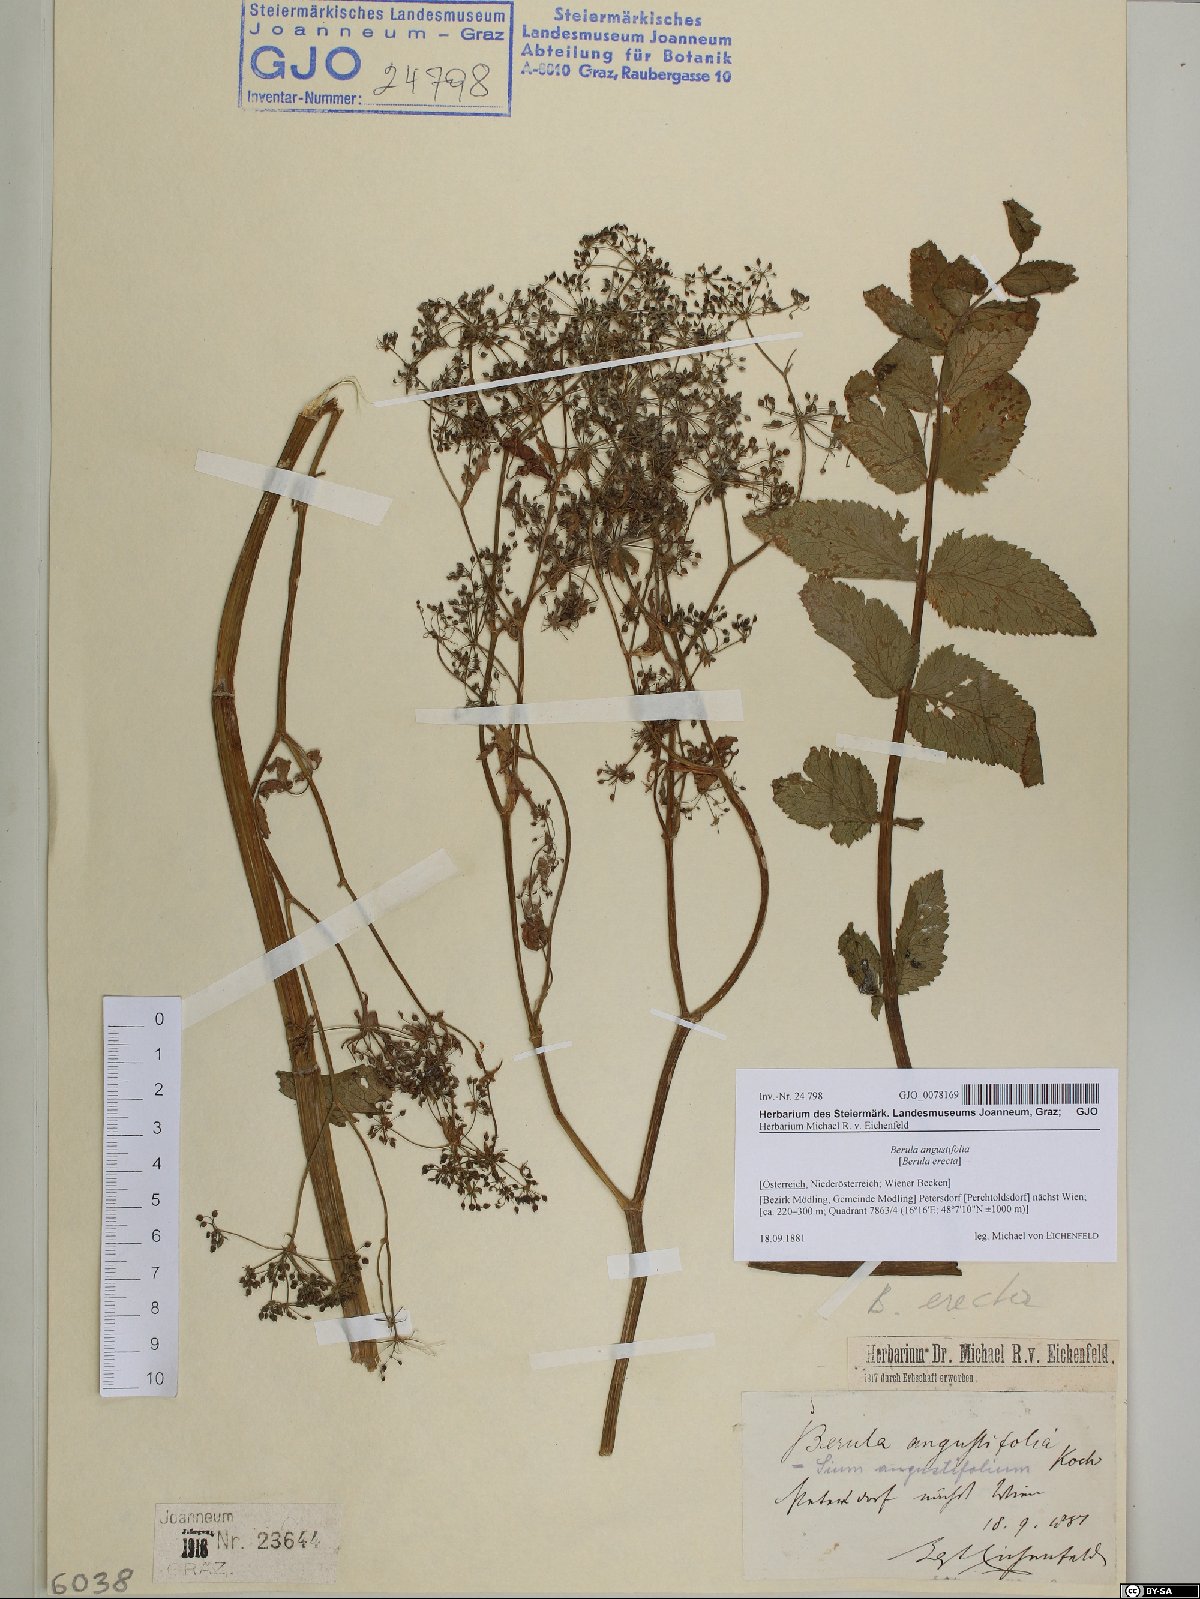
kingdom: Plantae
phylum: Tracheophyta
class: Magnoliopsida
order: Apiales
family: Apiaceae
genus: Berula
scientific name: Berula erecta
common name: Lesser water-parsnip
